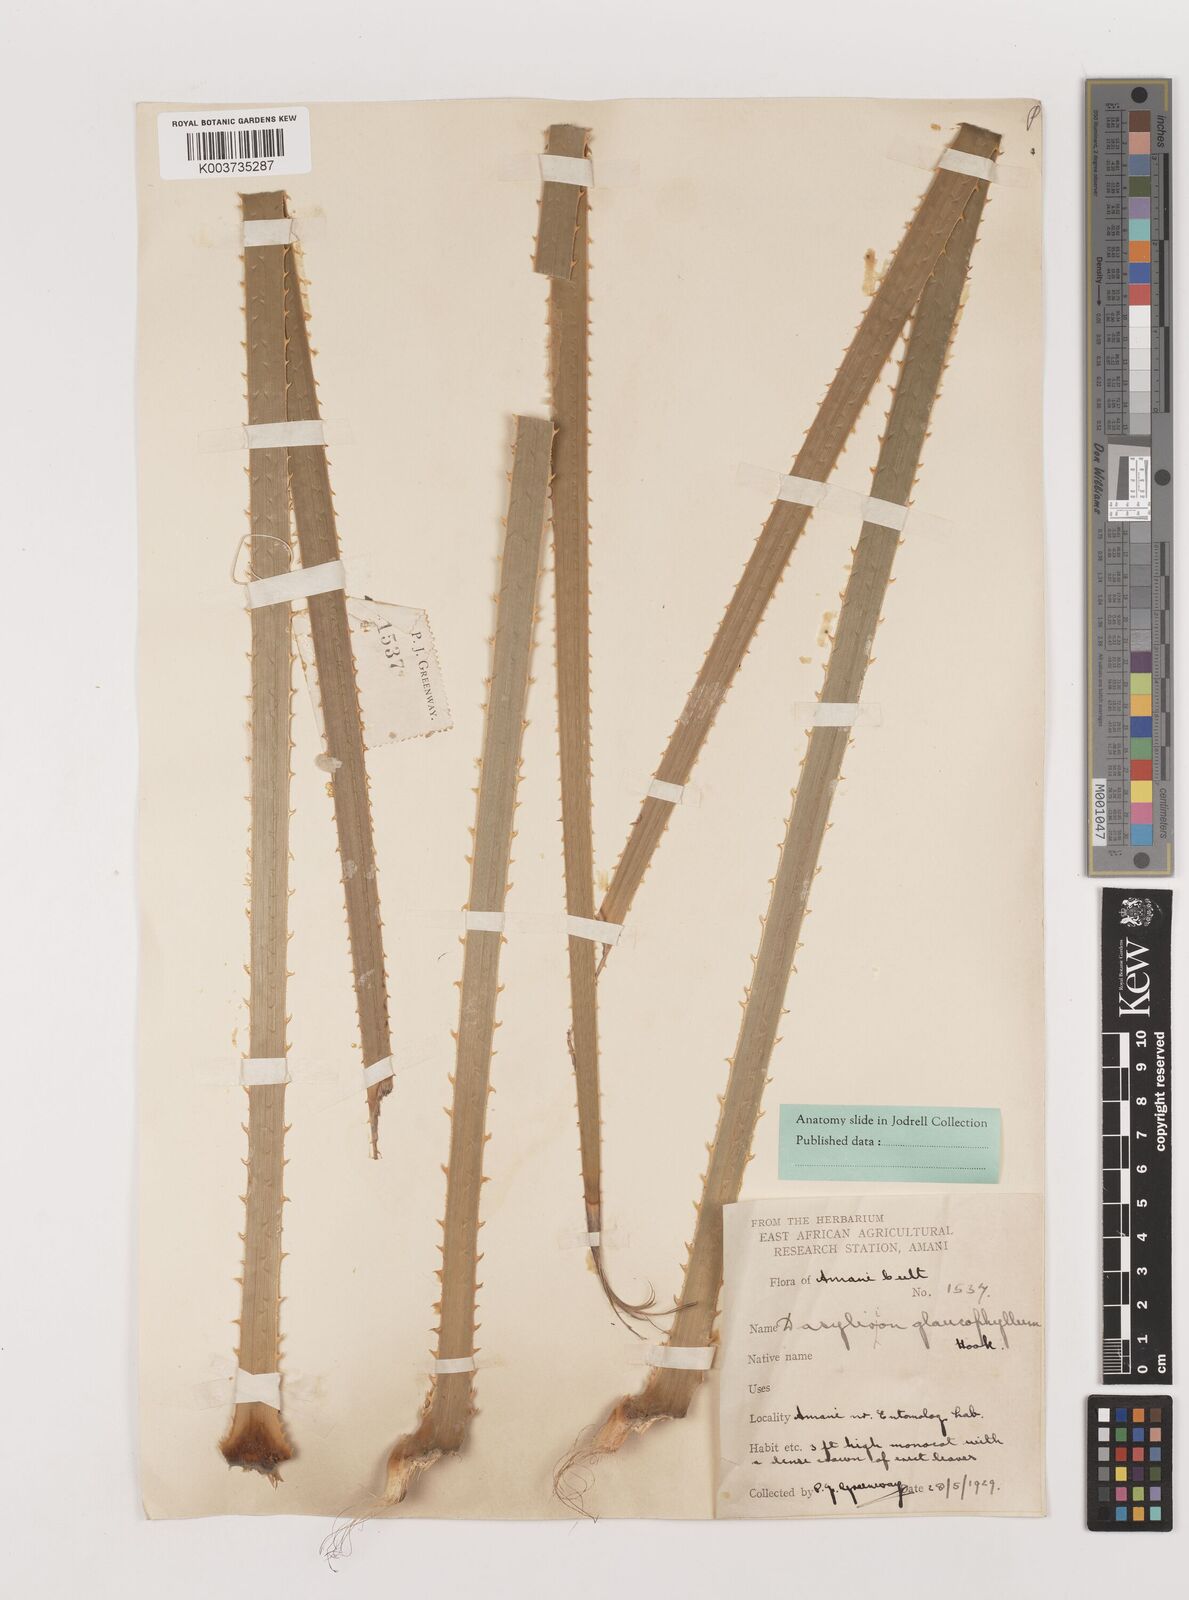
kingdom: Plantae
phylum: Tracheophyta
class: Liliopsida
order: Asparagales
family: Asparagaceae
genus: Dasylirion
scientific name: Dasylirion glaucophyllum
